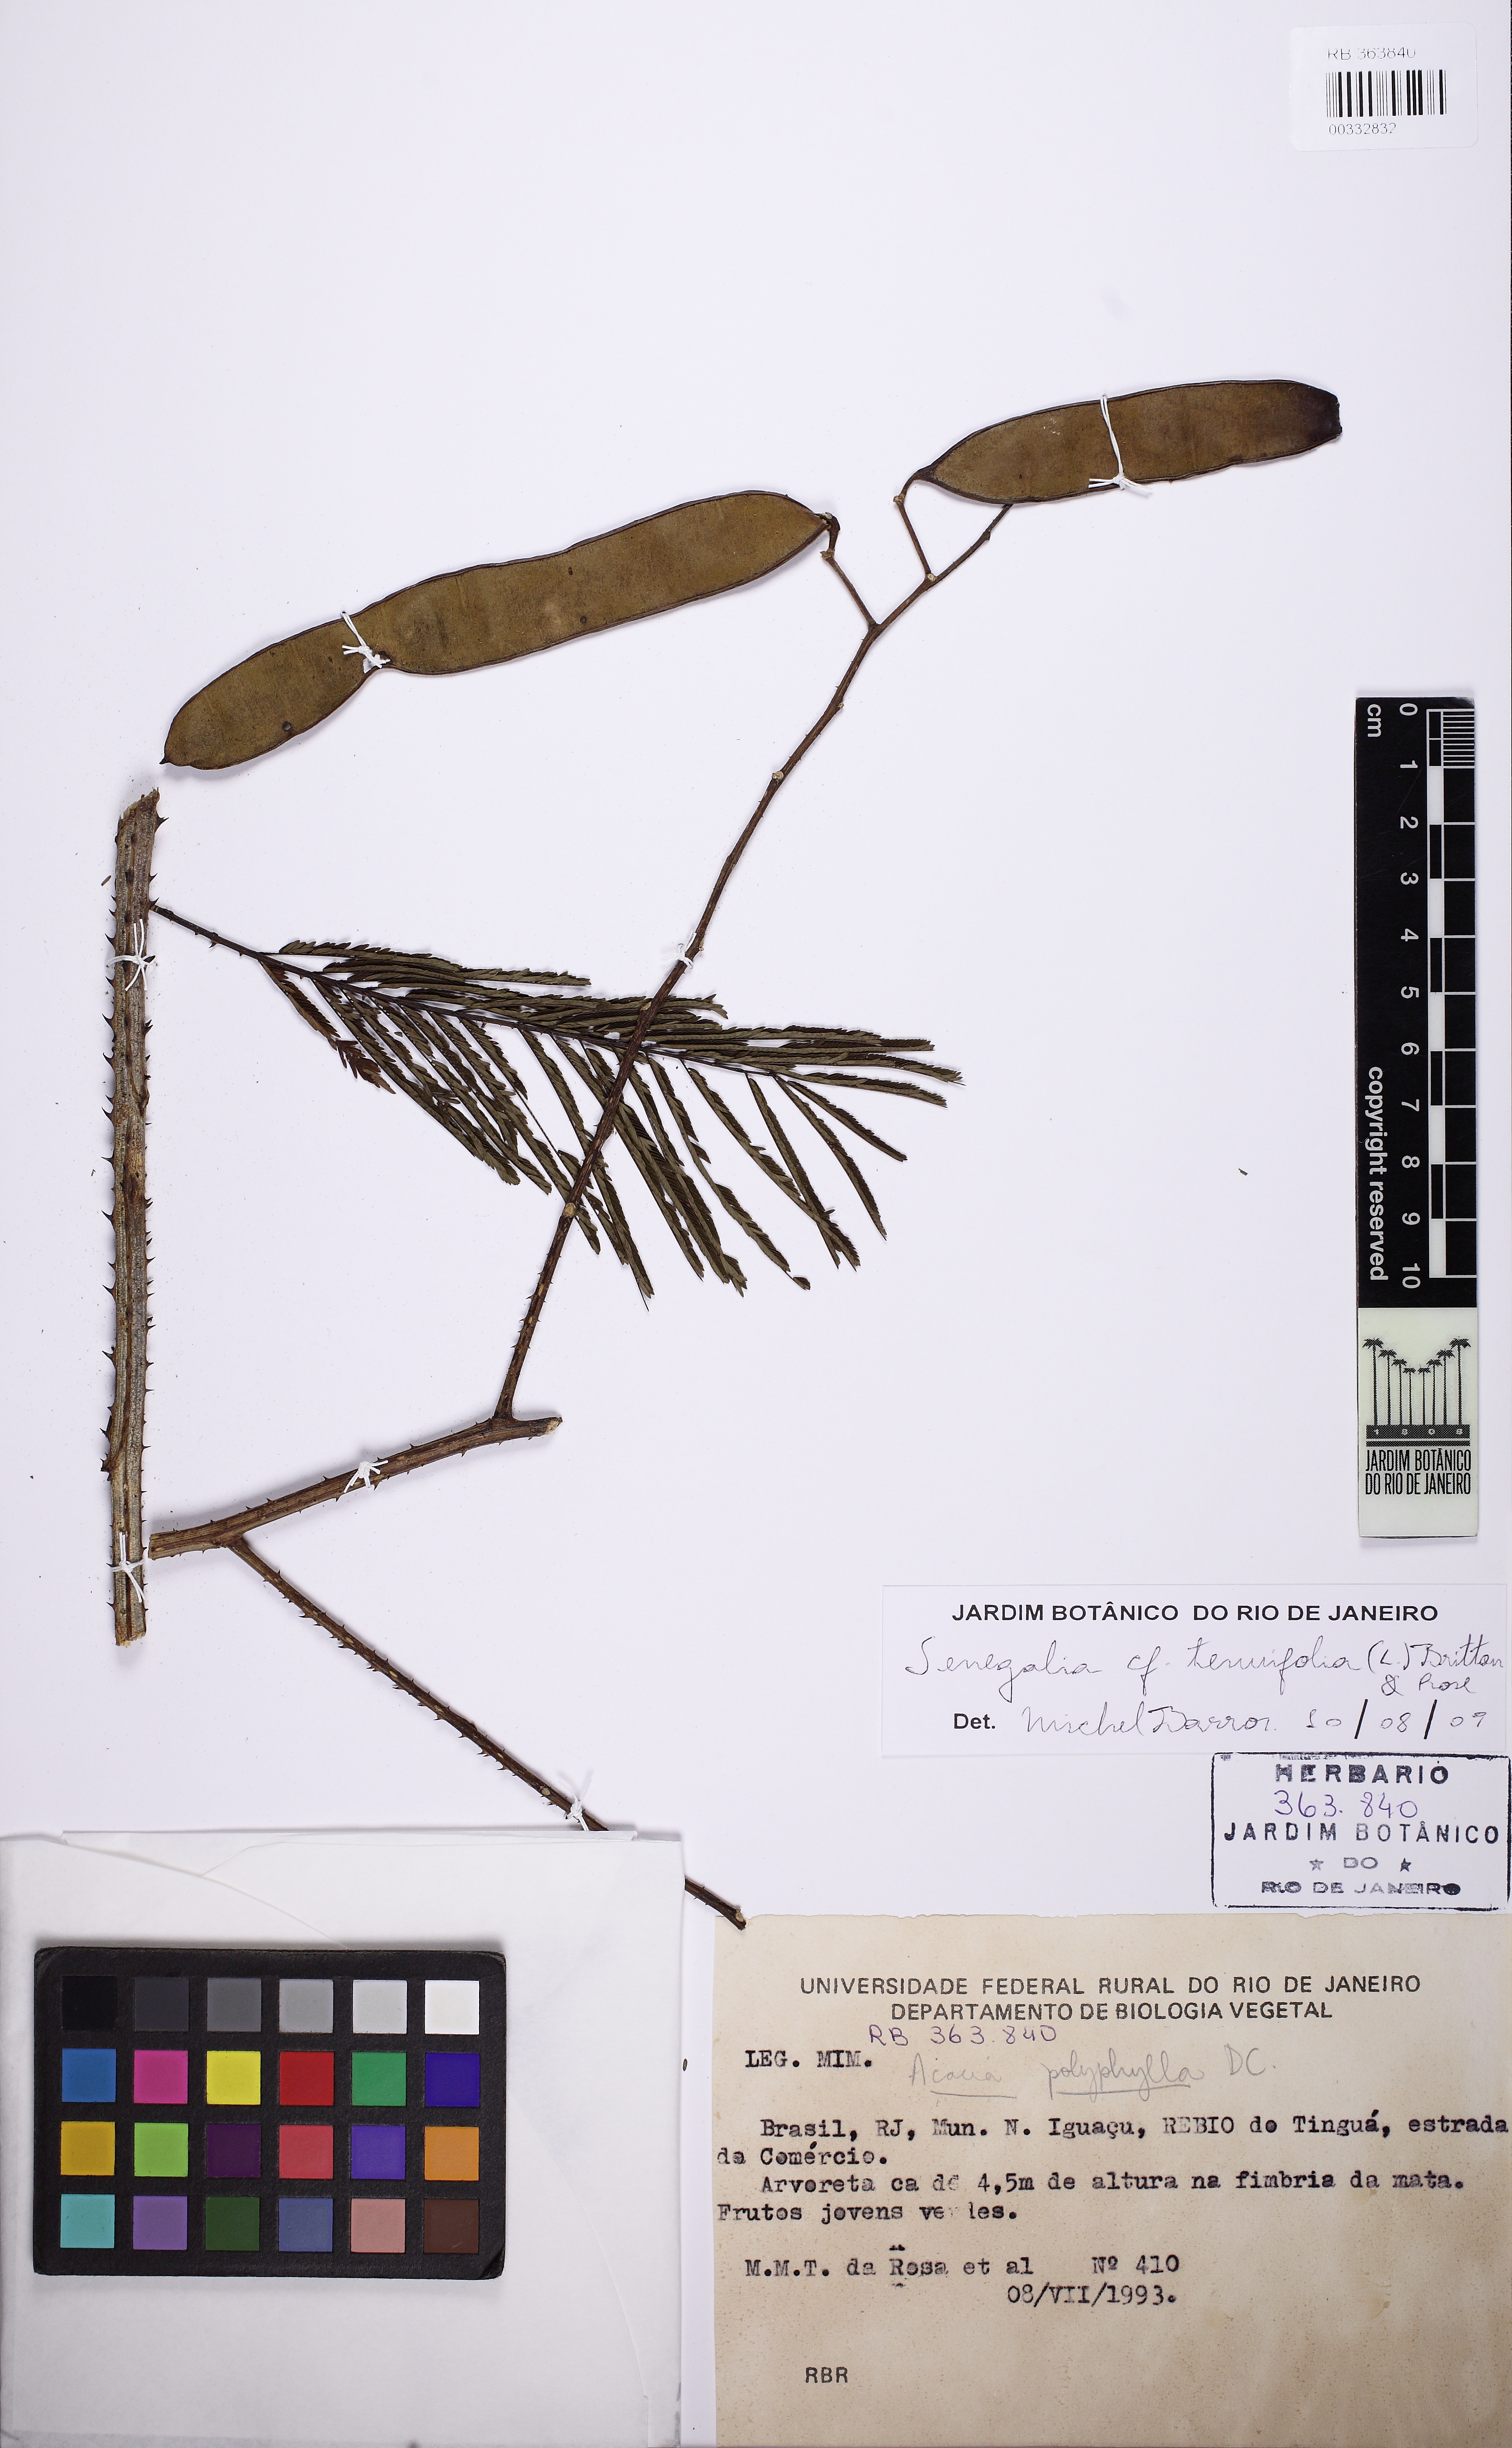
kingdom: Plantae
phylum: Tracheophyta
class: Magnoliopsida
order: Fabales
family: Fabaceae
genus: Senegalia
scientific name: Senegalia tenuifolia
